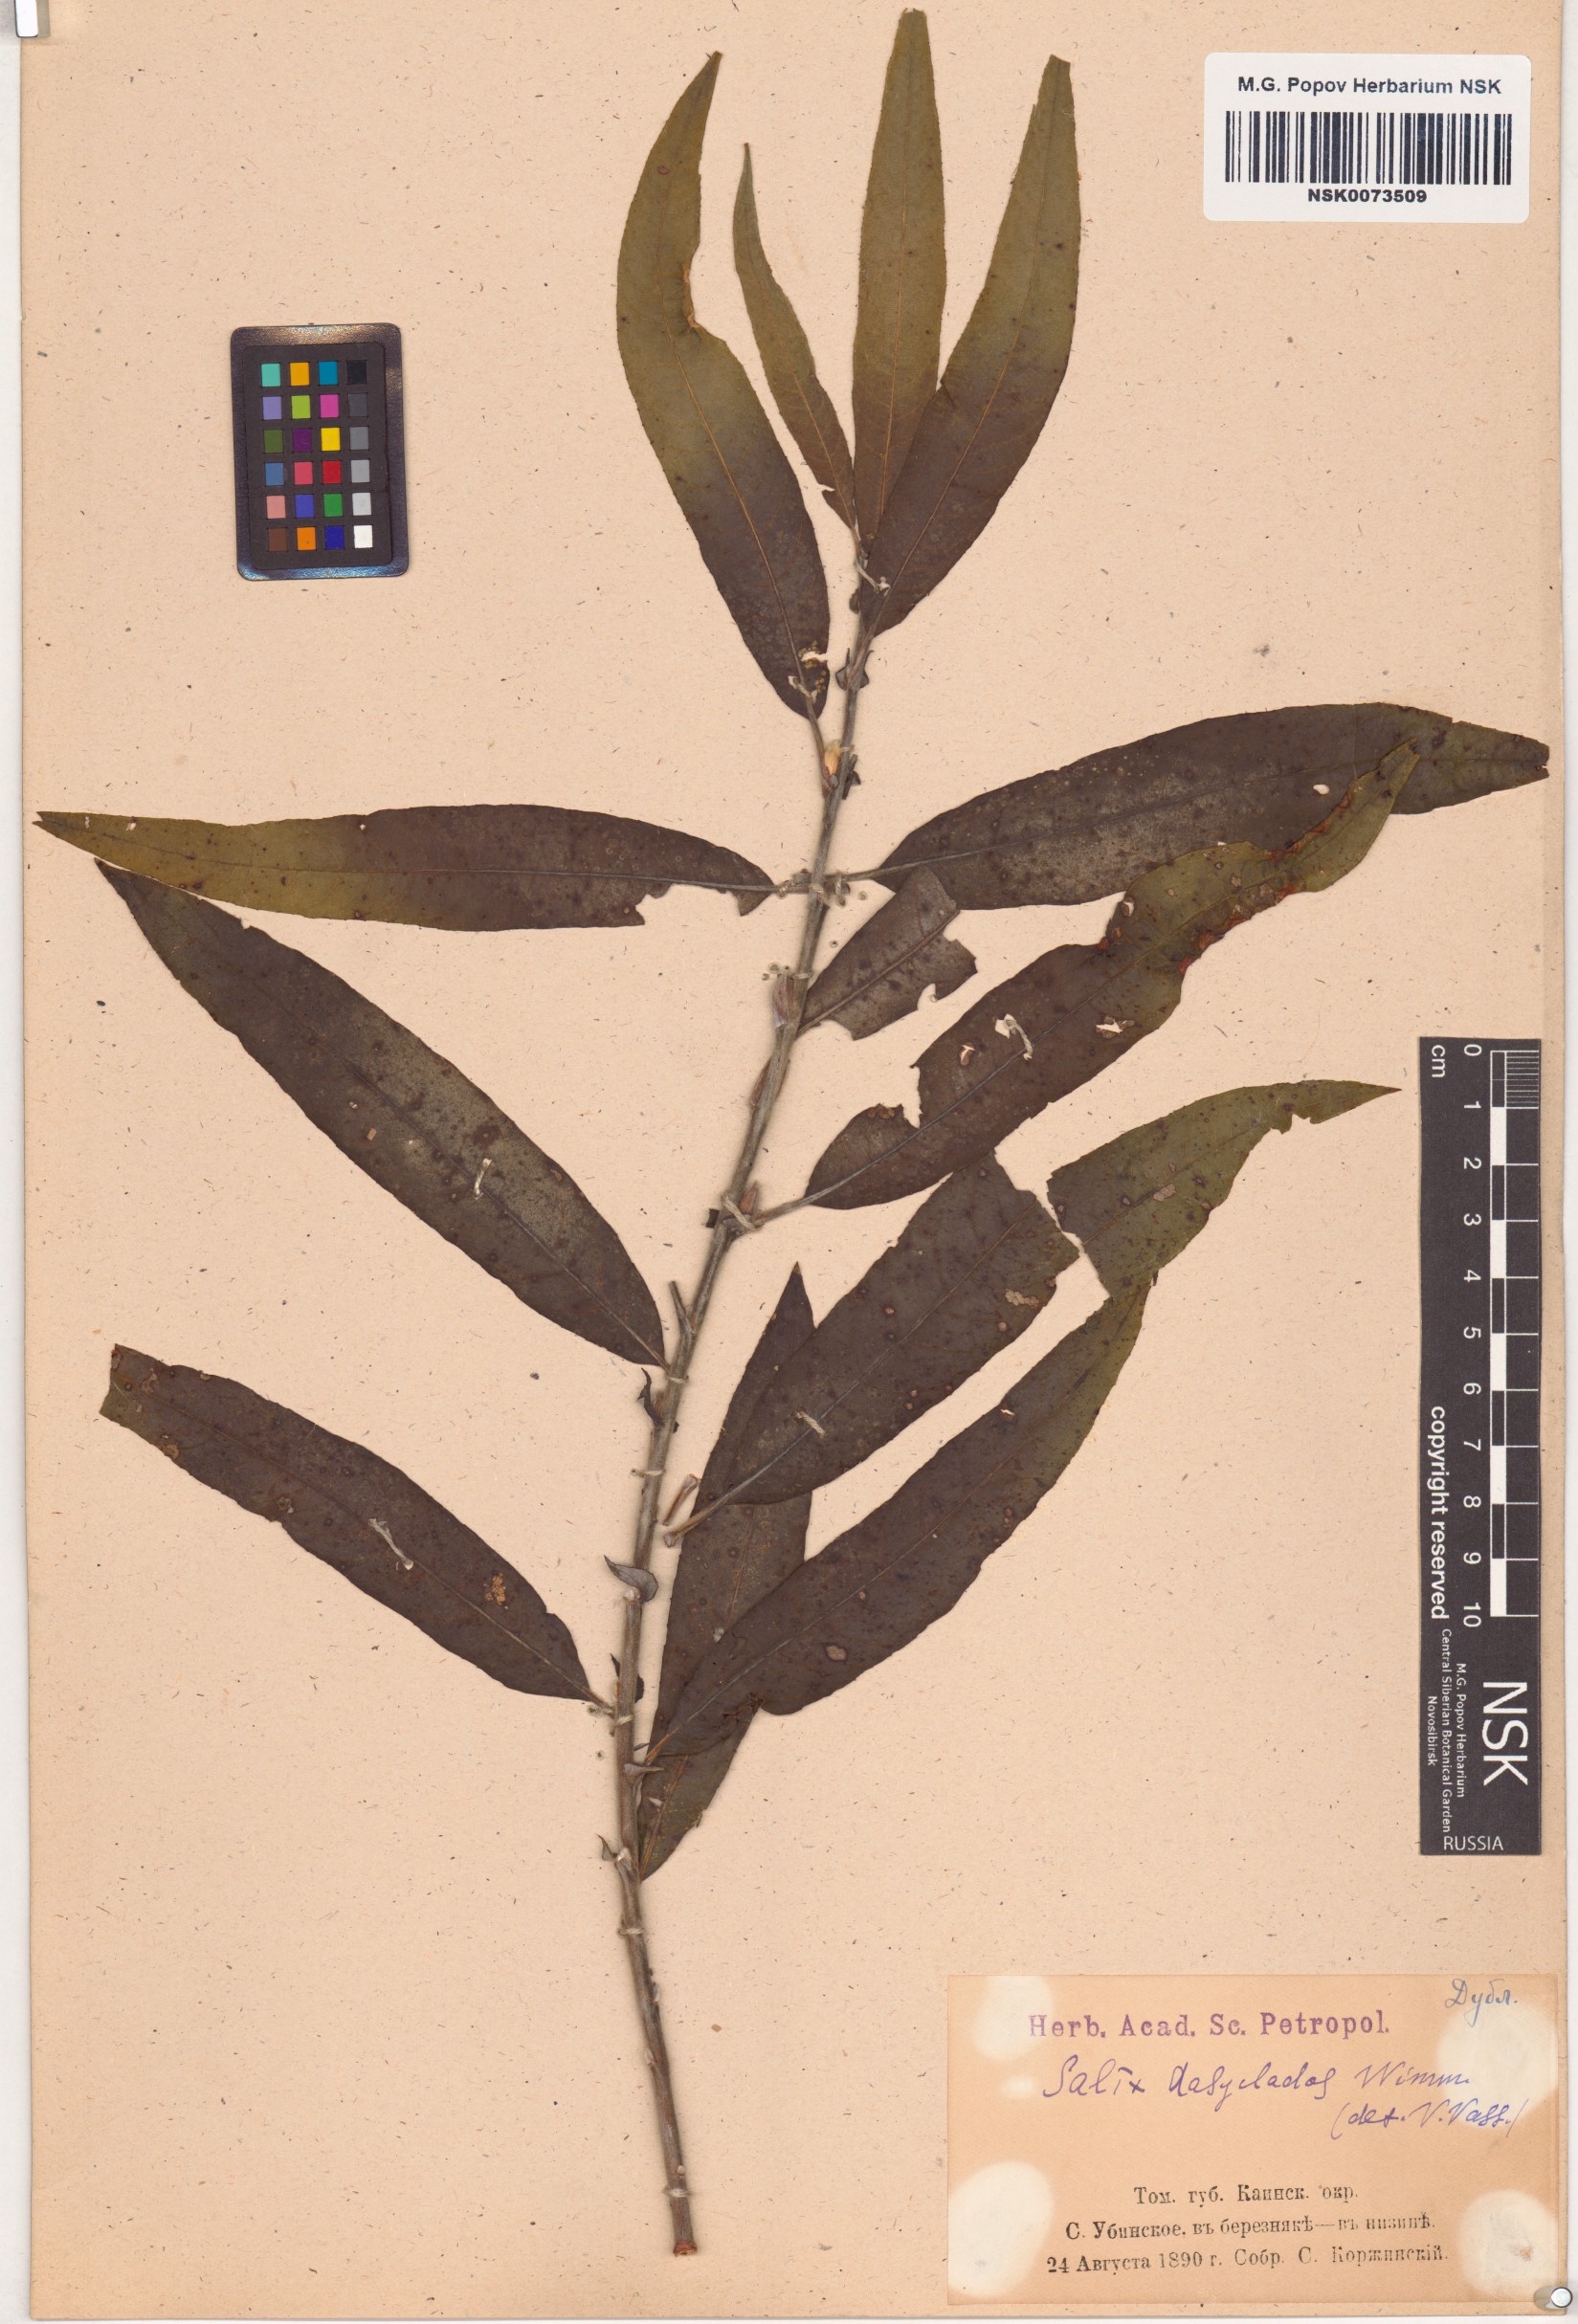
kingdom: Plantae
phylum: Tracheophyta
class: Magnoliopsida
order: Malpighiales
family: Salicaceae
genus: Salix
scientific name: Salix gmelinii
